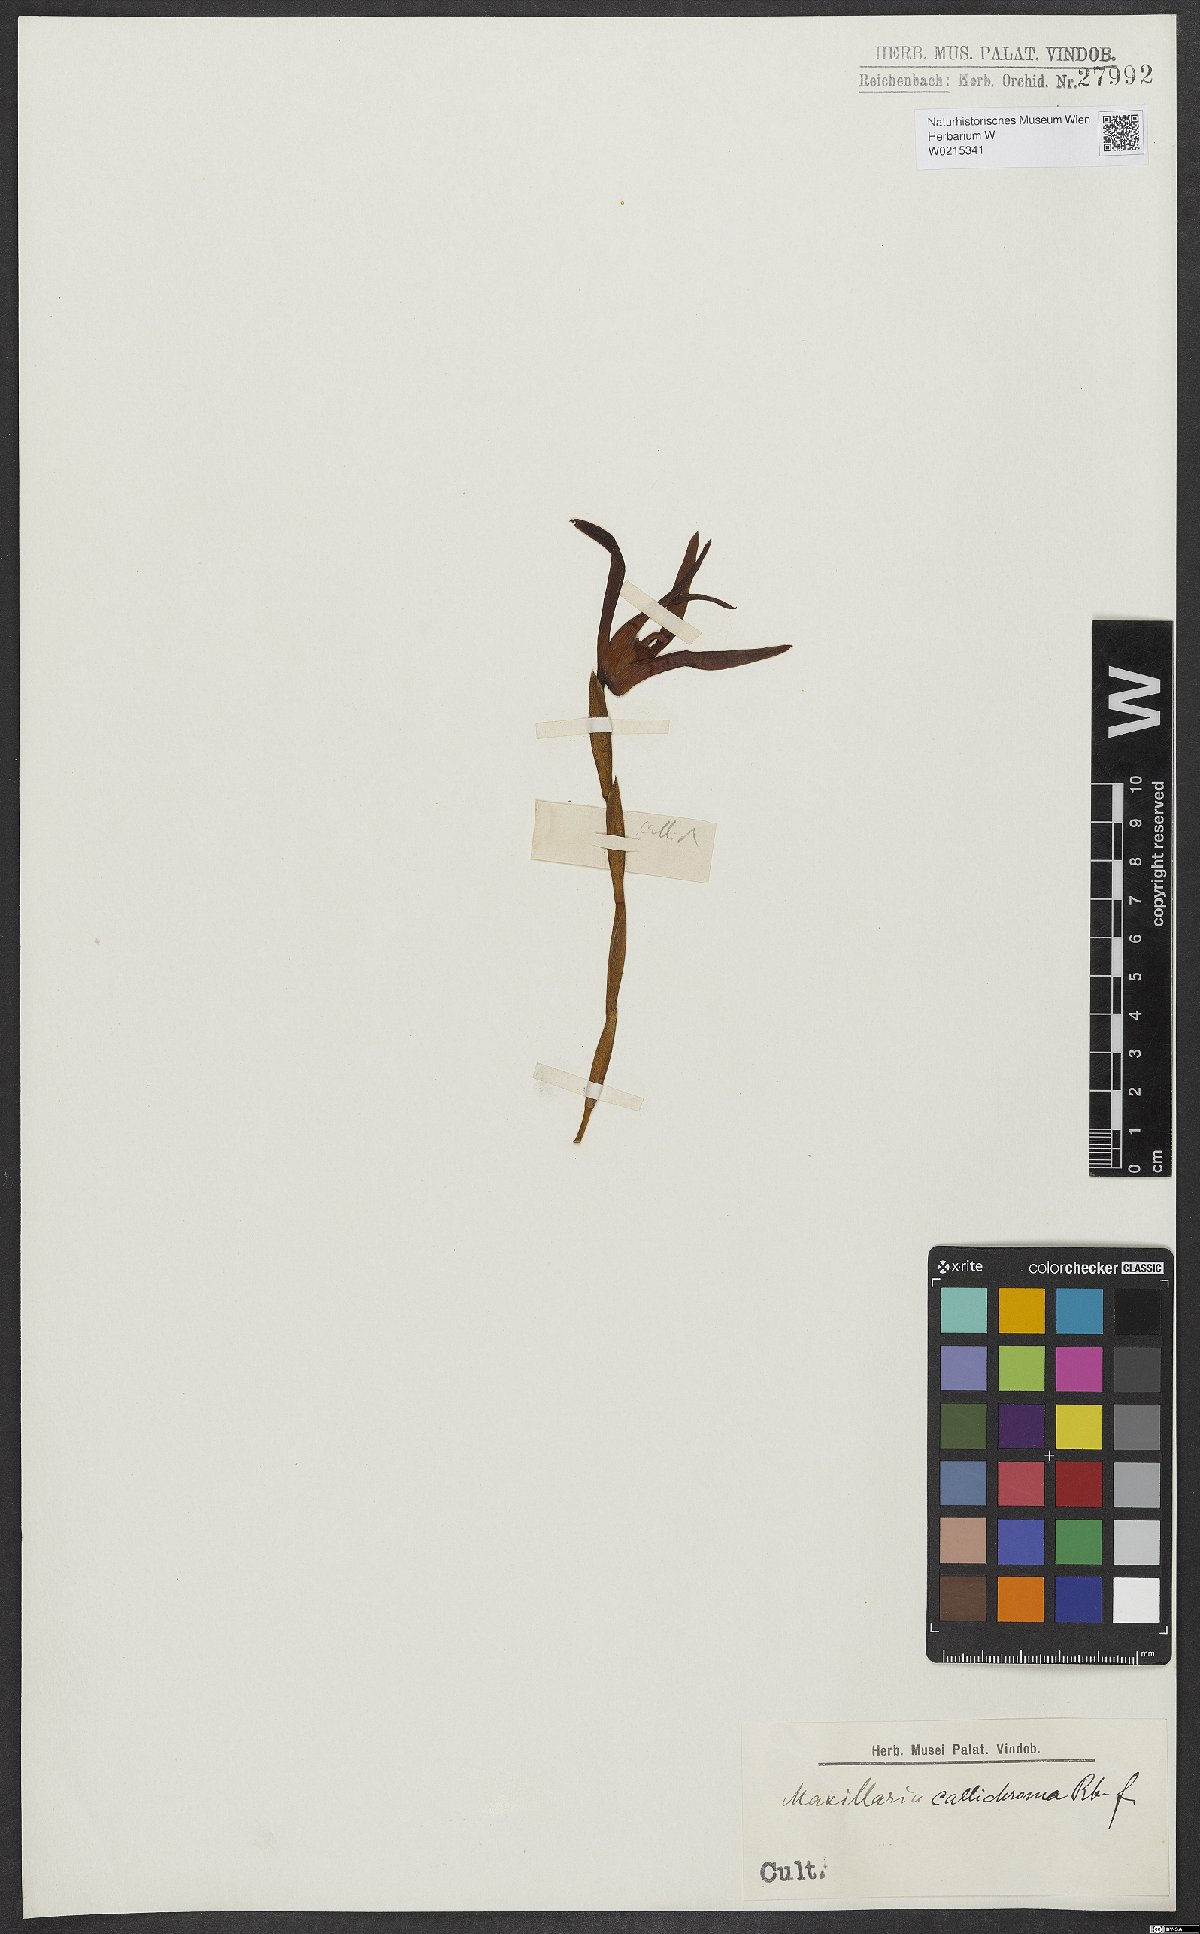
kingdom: Plantae
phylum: Tracheophyta
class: Liliopsida
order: Asparagales
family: Orchidaceae
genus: Maxillaria
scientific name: Maxillaria callichroma
